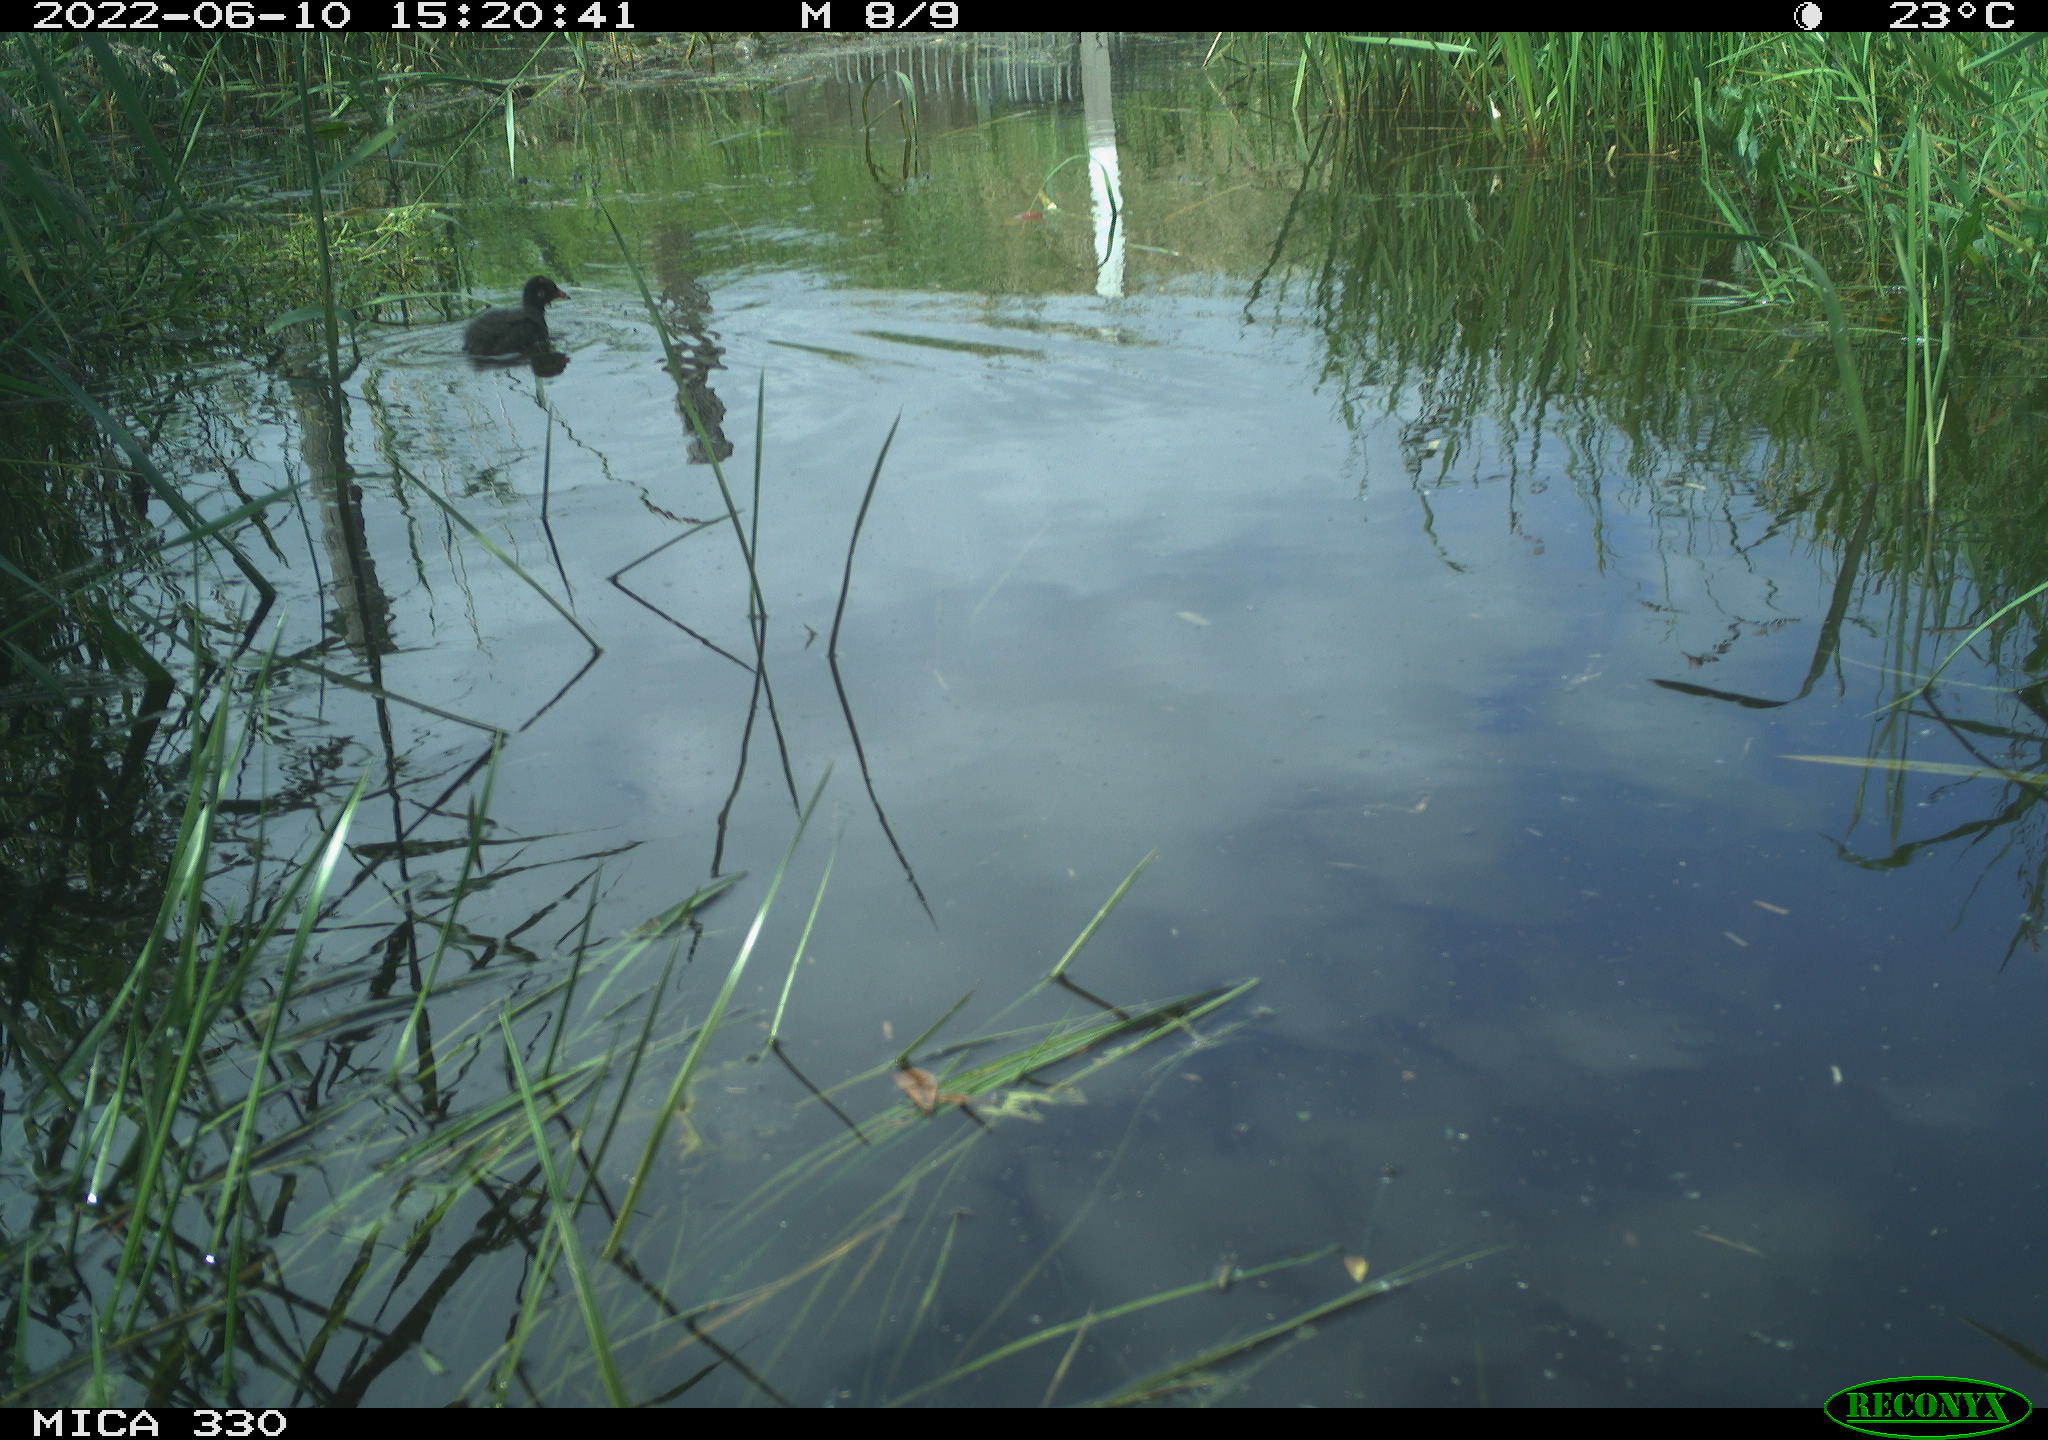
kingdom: Animalia
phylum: Chordata
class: Aves
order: Gruiformes
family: Rallidae
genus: Fulica
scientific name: Fulica atra
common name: Eurasian coot
